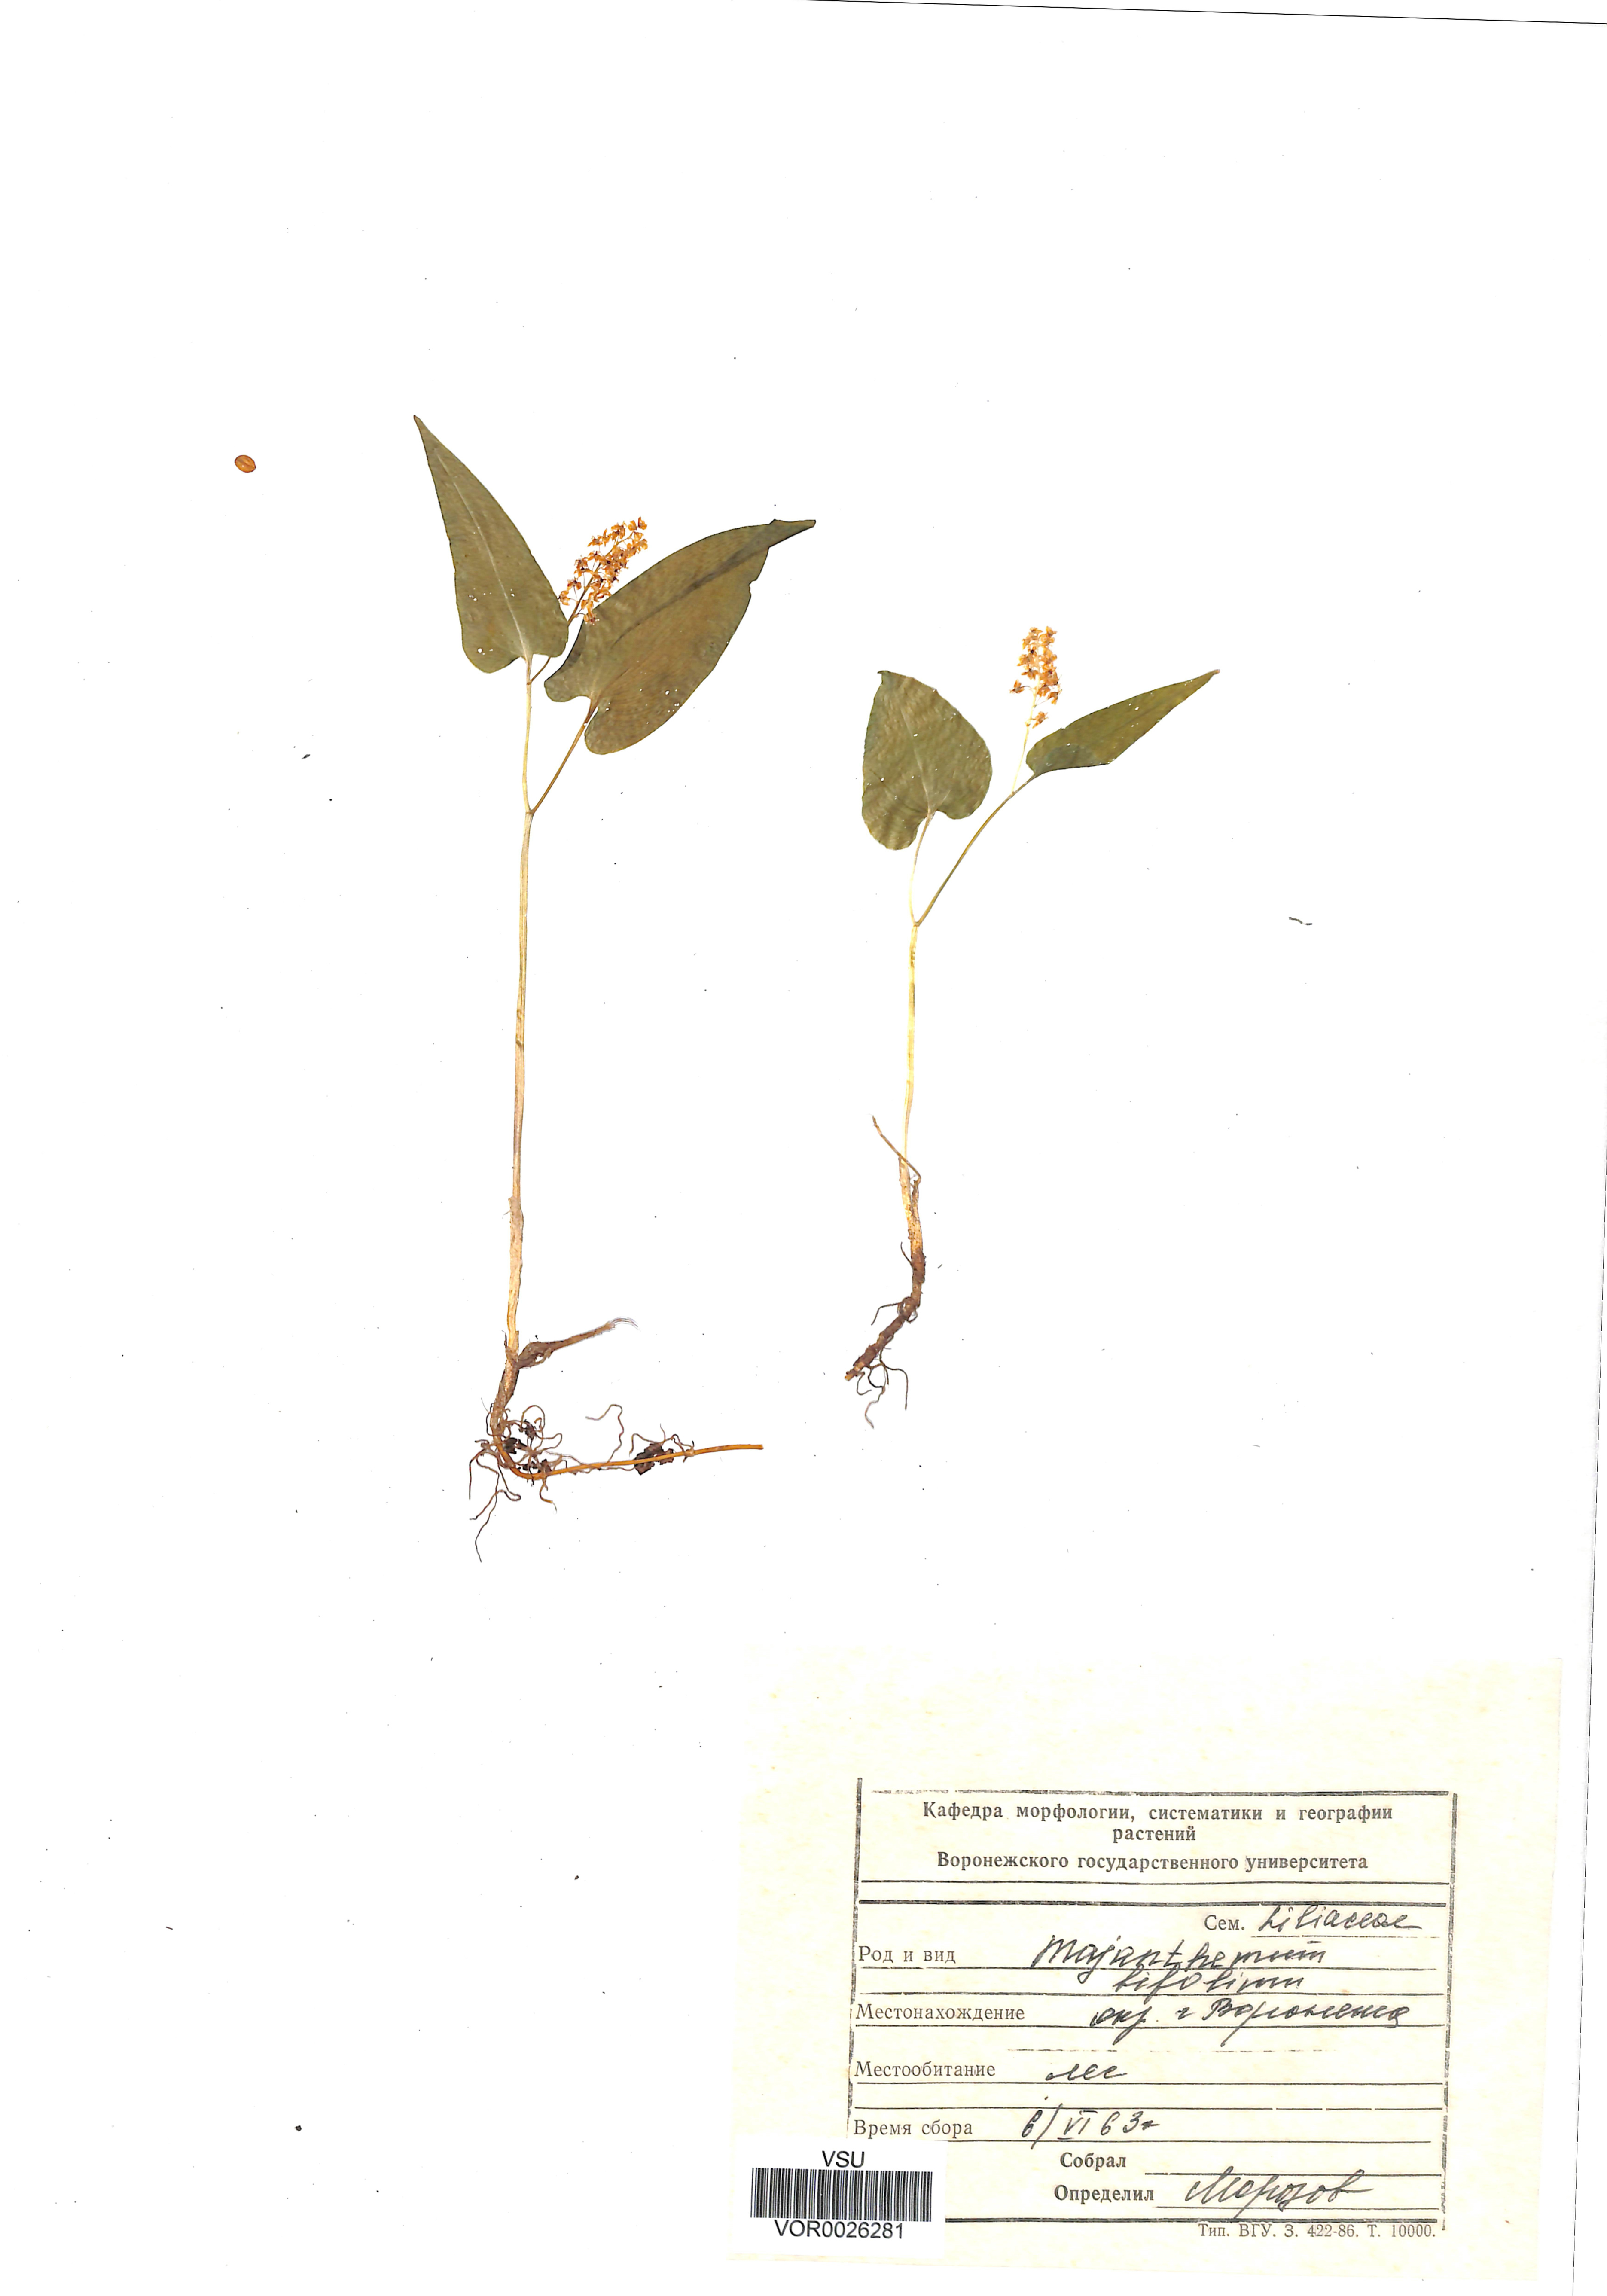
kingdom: Plantae
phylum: Tracheophyta
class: Liliopsida
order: Asparagales
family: Asparagaceae
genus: Maianthemum
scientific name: Maianthemum bifolium
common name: May lily
